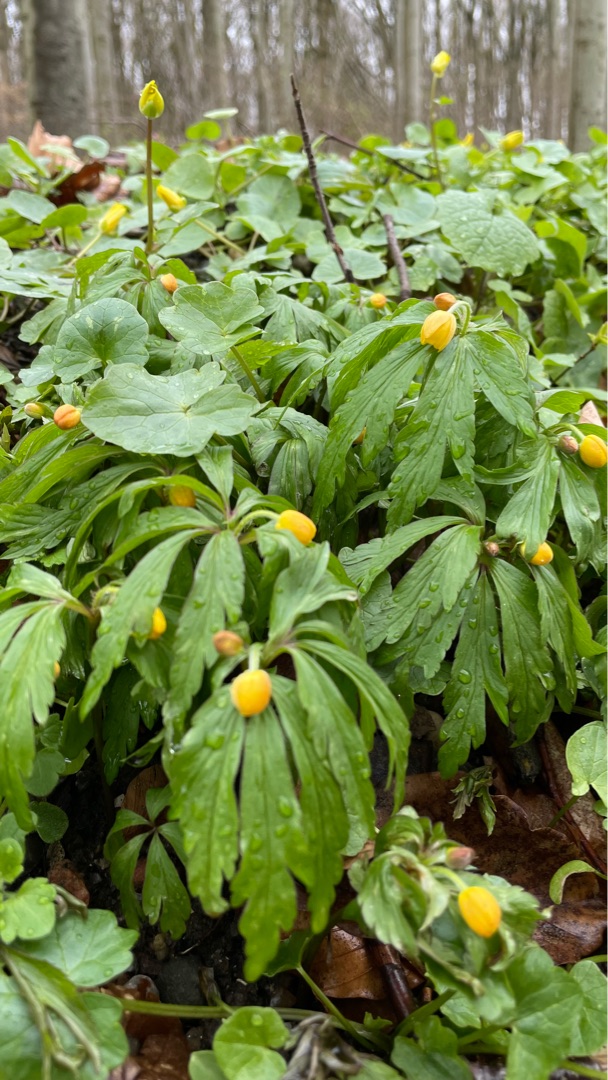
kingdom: Plantae
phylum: Tracheophyta
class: Magnoliopsida
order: Ranunculales
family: Ranunculaceae
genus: Anemone
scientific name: Anemone ranunculoides
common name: Gul anemone
